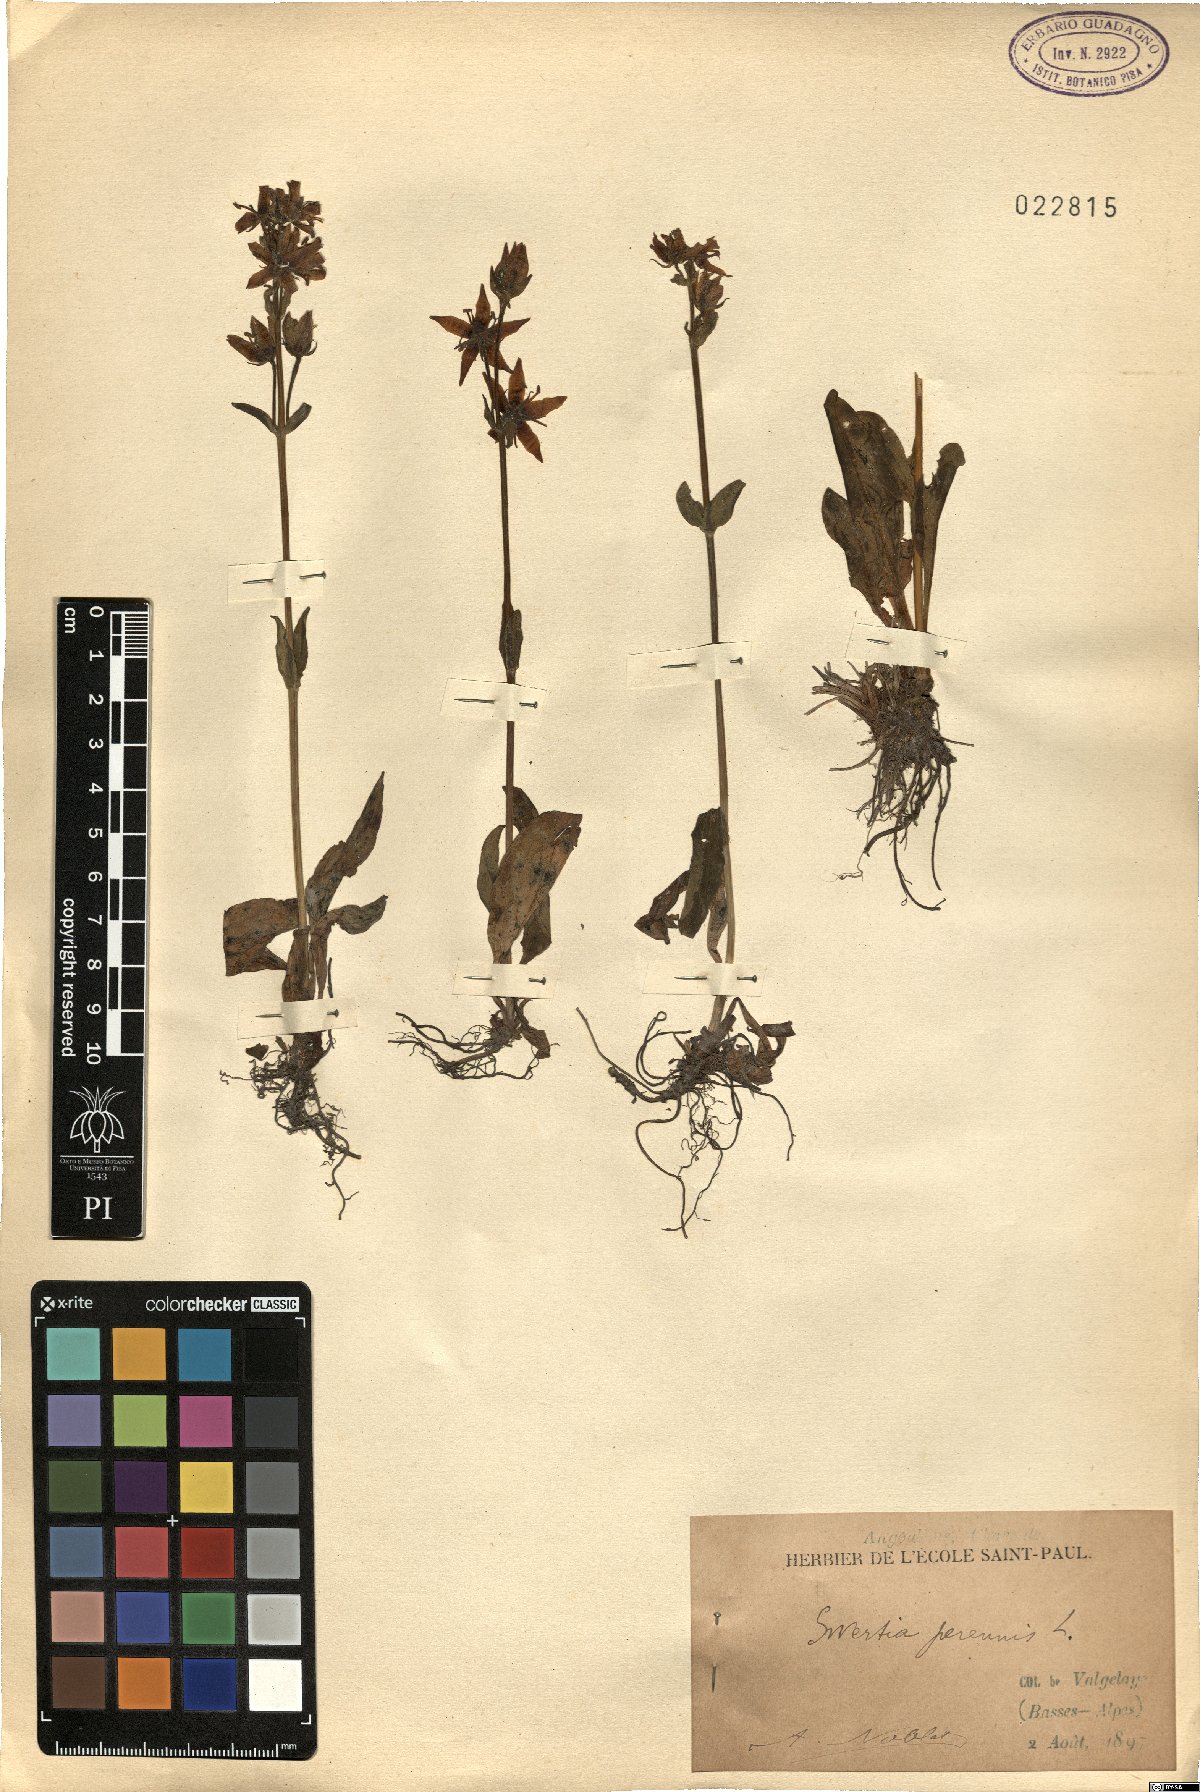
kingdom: Plantae
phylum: Tracheophyta
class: Magnoliopsida
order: Gentianales
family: Gentianaceae
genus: Swertia
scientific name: Swertia perennis
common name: Alpine bog swertia
